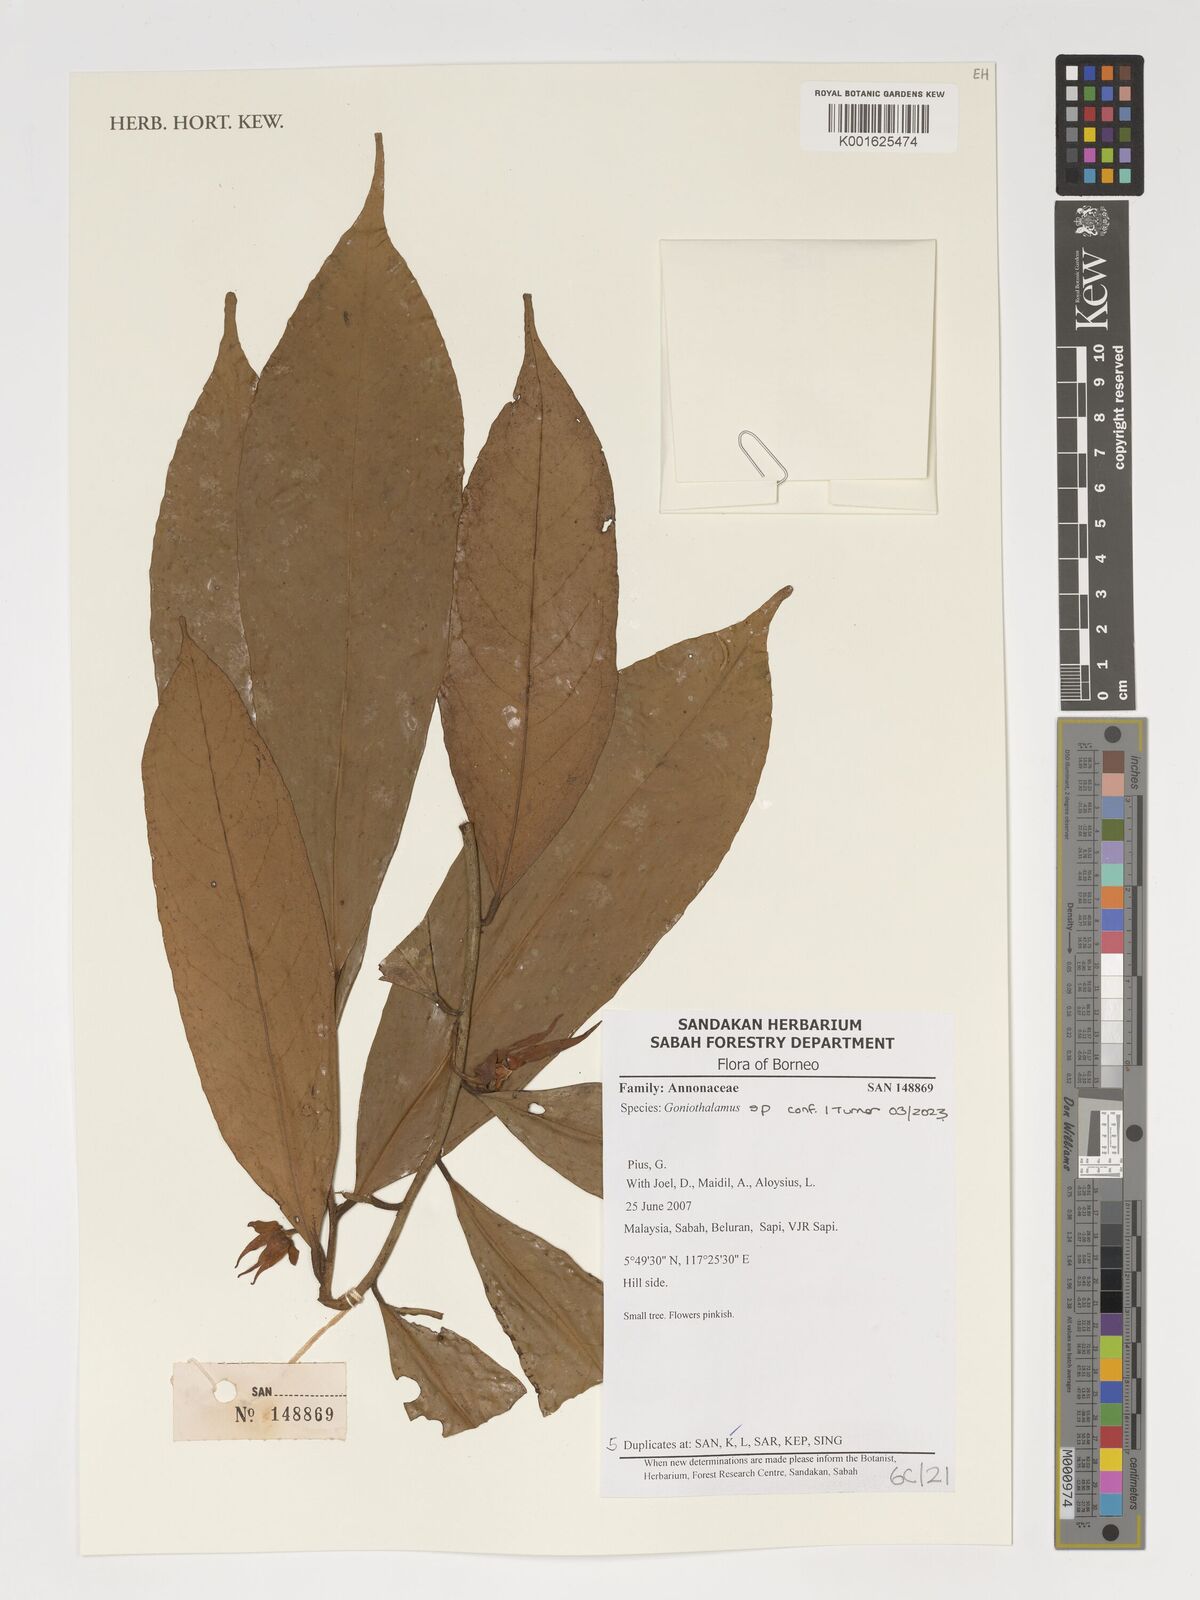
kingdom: Plantae
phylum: Tracheophyta
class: Magnoliopsida
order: Magnoliales
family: Annonaceae
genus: Goniothalamus
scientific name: Goniothalamus
